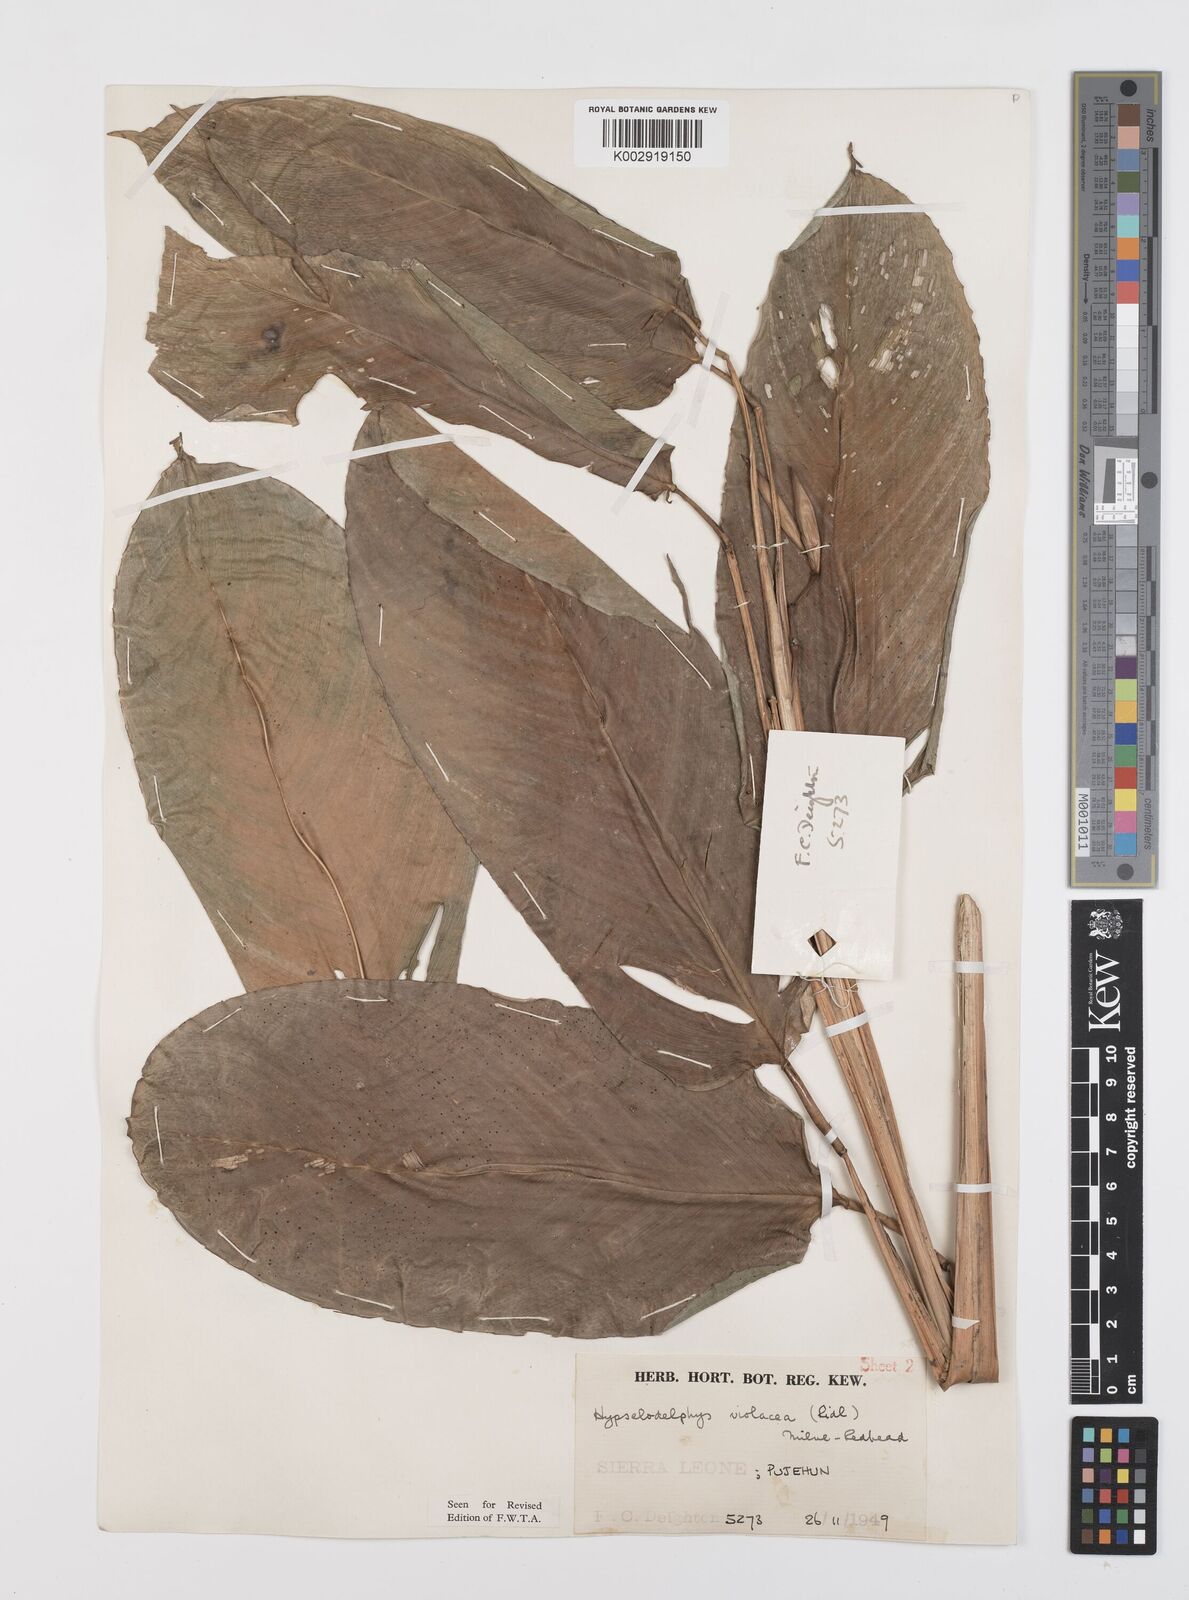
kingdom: Plantae
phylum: Tracheophyta
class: Liliopsida
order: Zingiberales
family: Marantaceae
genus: Hypselodelphys
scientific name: Hypselodelphys violacea
